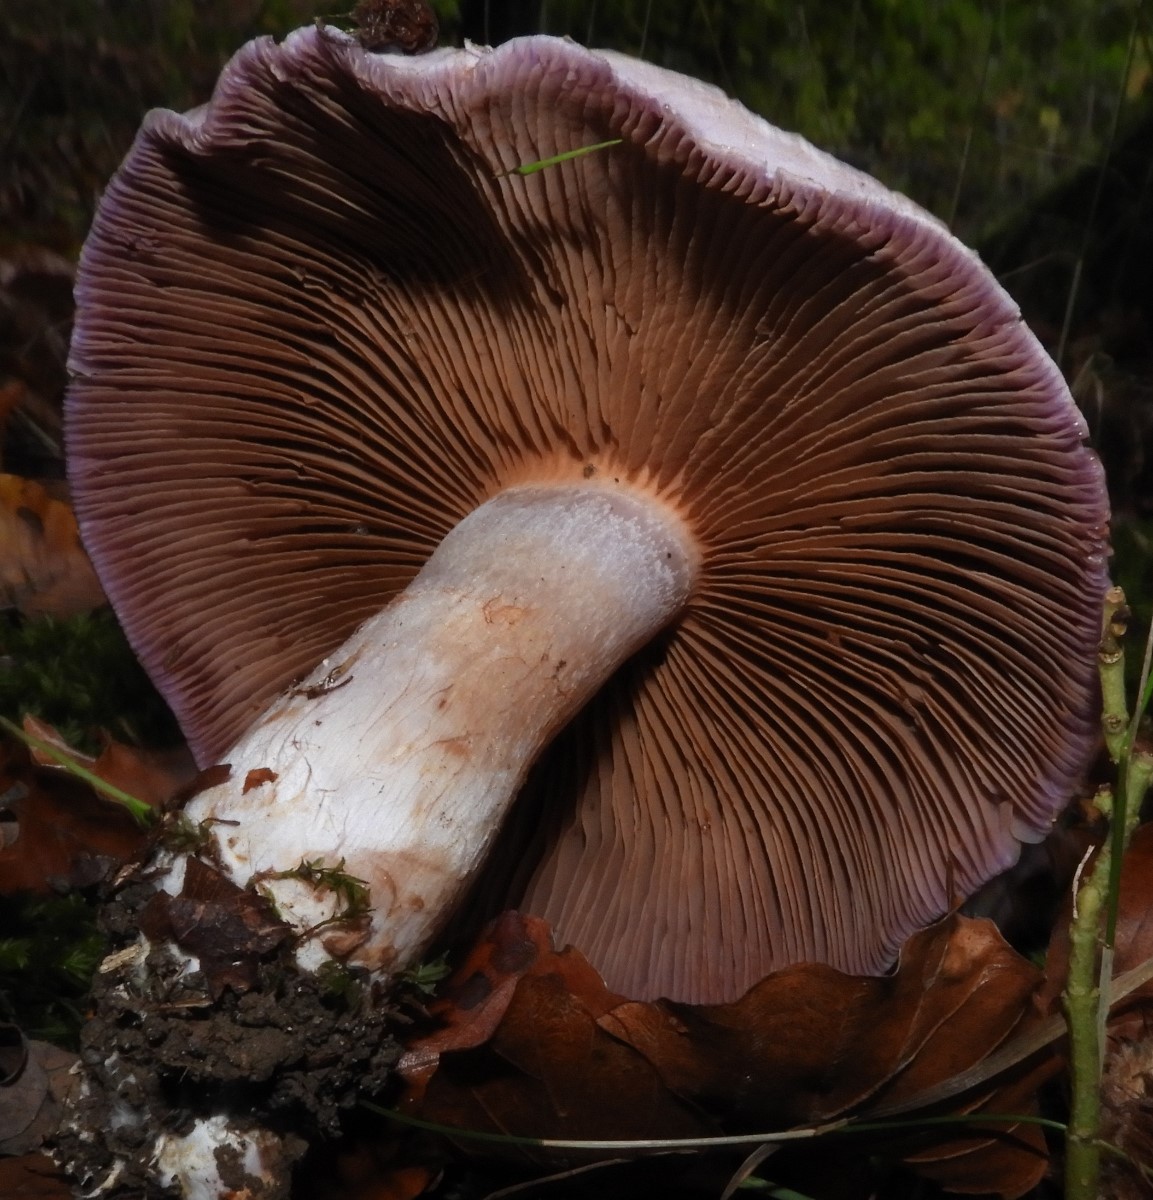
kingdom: Fungi
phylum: Basidiomycota
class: Agaricomycetes
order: Agaricales
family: Cortinariaceae
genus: Cortinarius
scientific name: Cortinarius largus
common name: violetrandet slørhat
